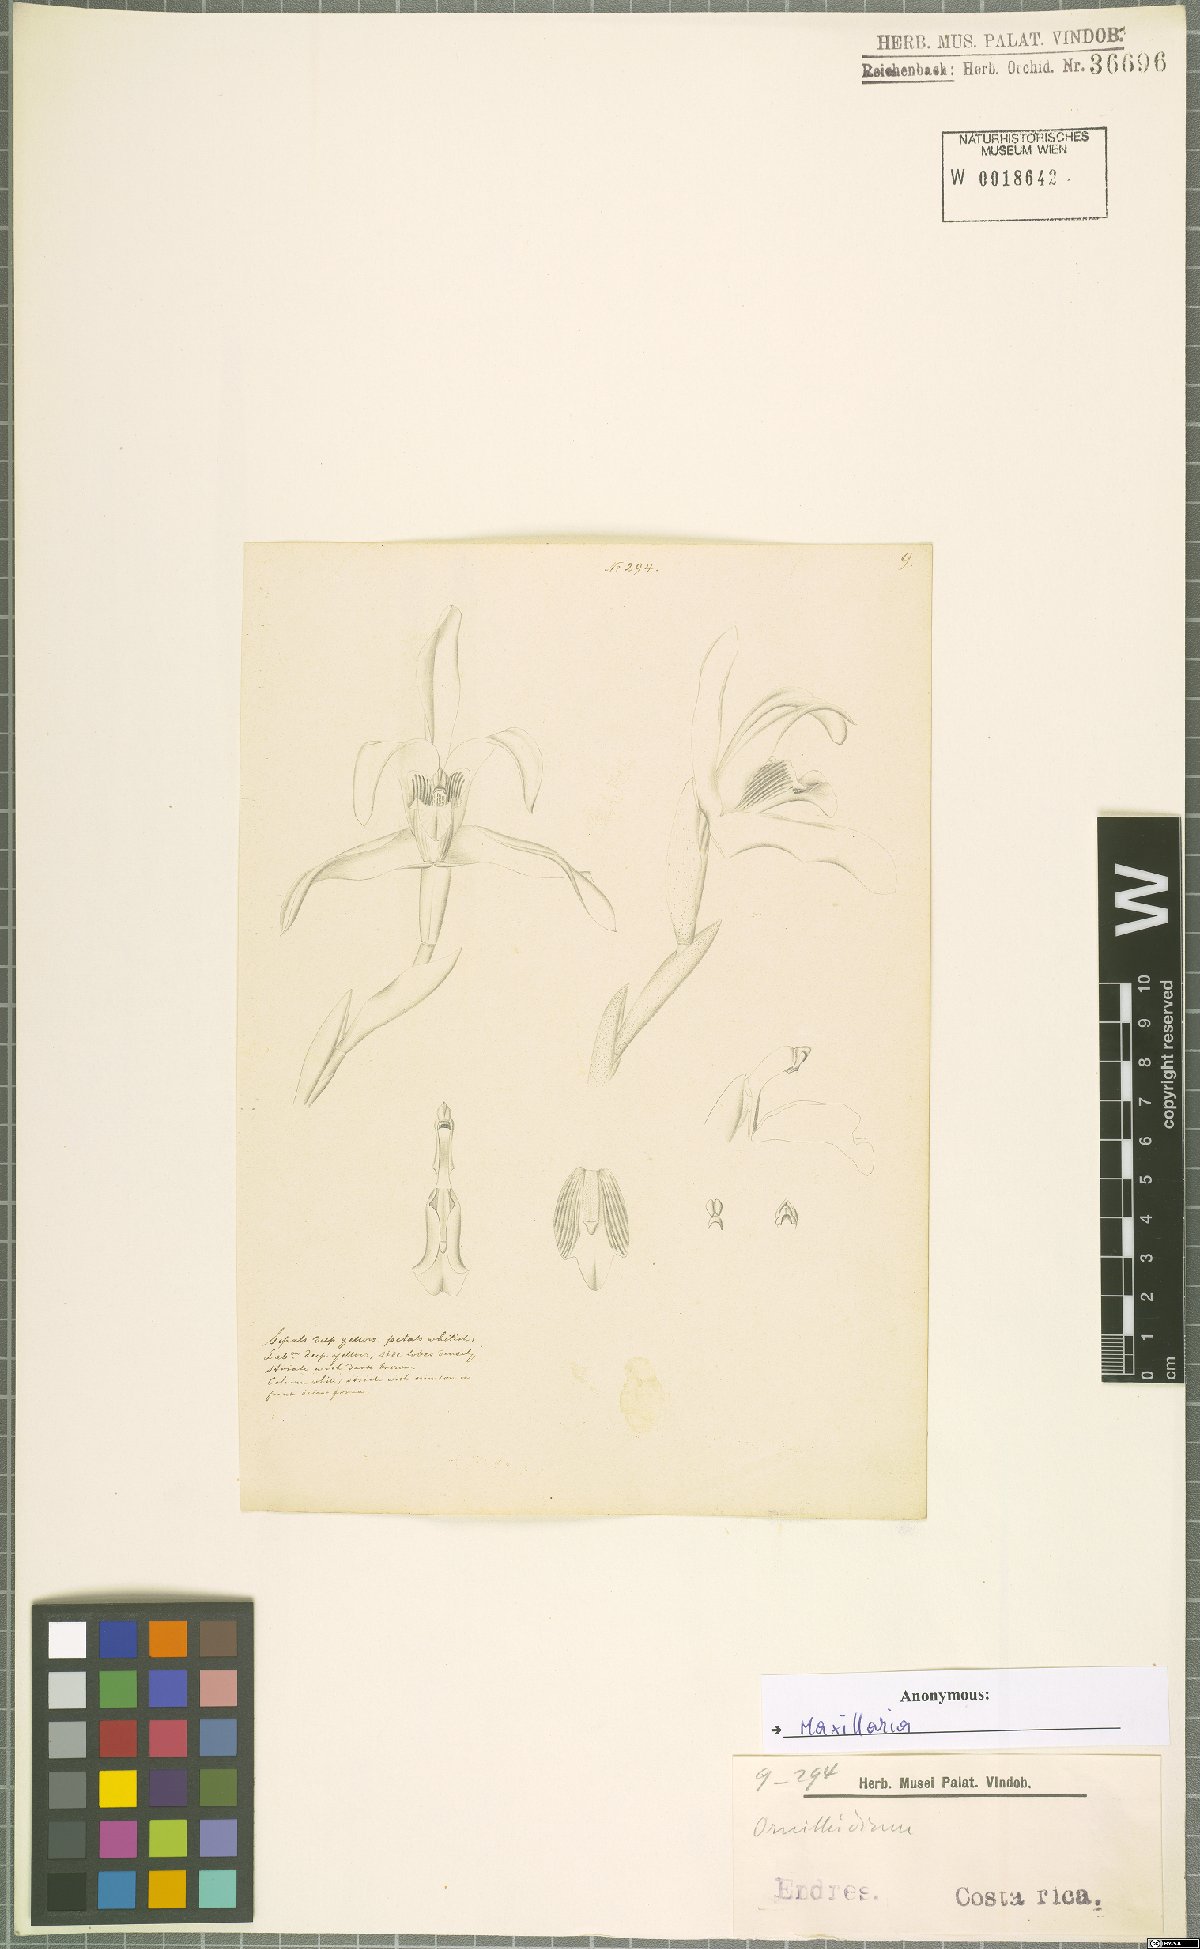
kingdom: Plantae
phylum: Tracheophyta
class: Liliopsida
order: Asparagales
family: Orchidaceae
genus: Maxillaria
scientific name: Maxillaria
